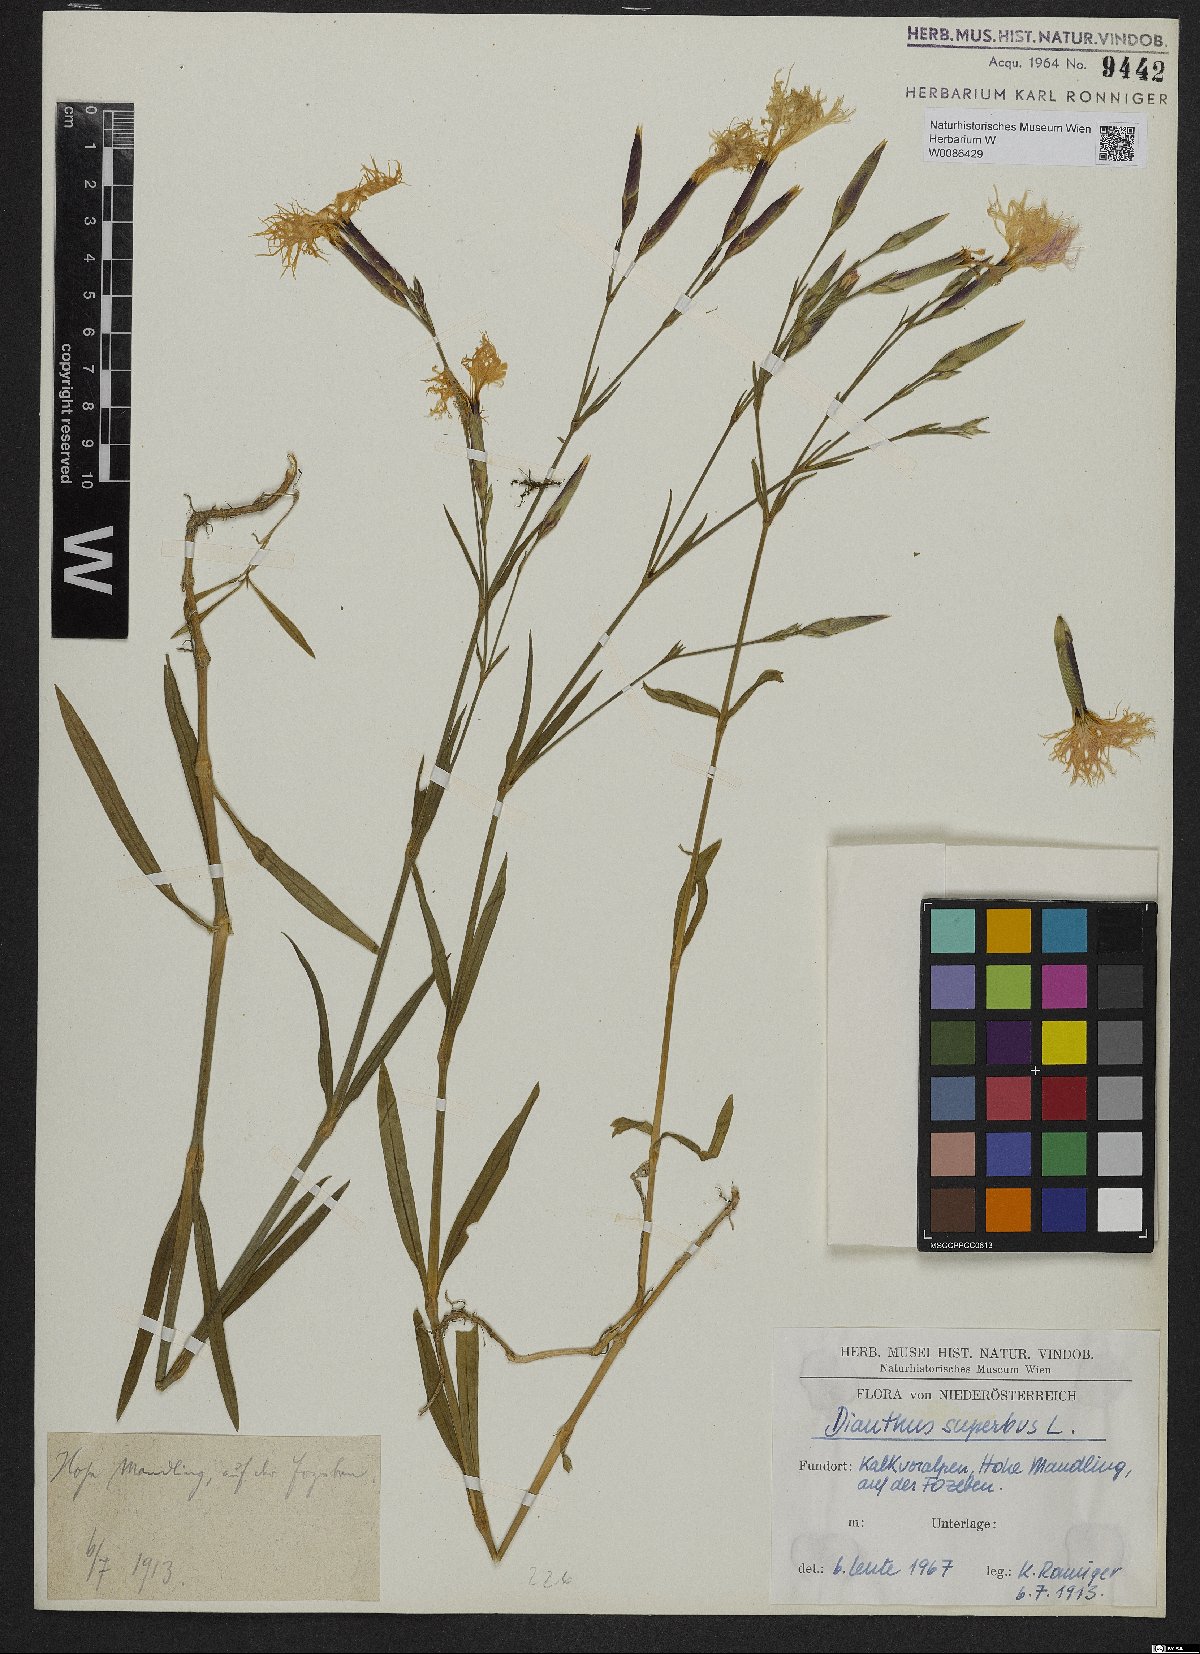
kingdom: Plantae
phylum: Tracheophyta
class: Magnoliopsida
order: Caryophyllales
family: Caryophyllaceae
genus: Dianthus
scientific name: Dianthus superbus
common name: Fringed pink
